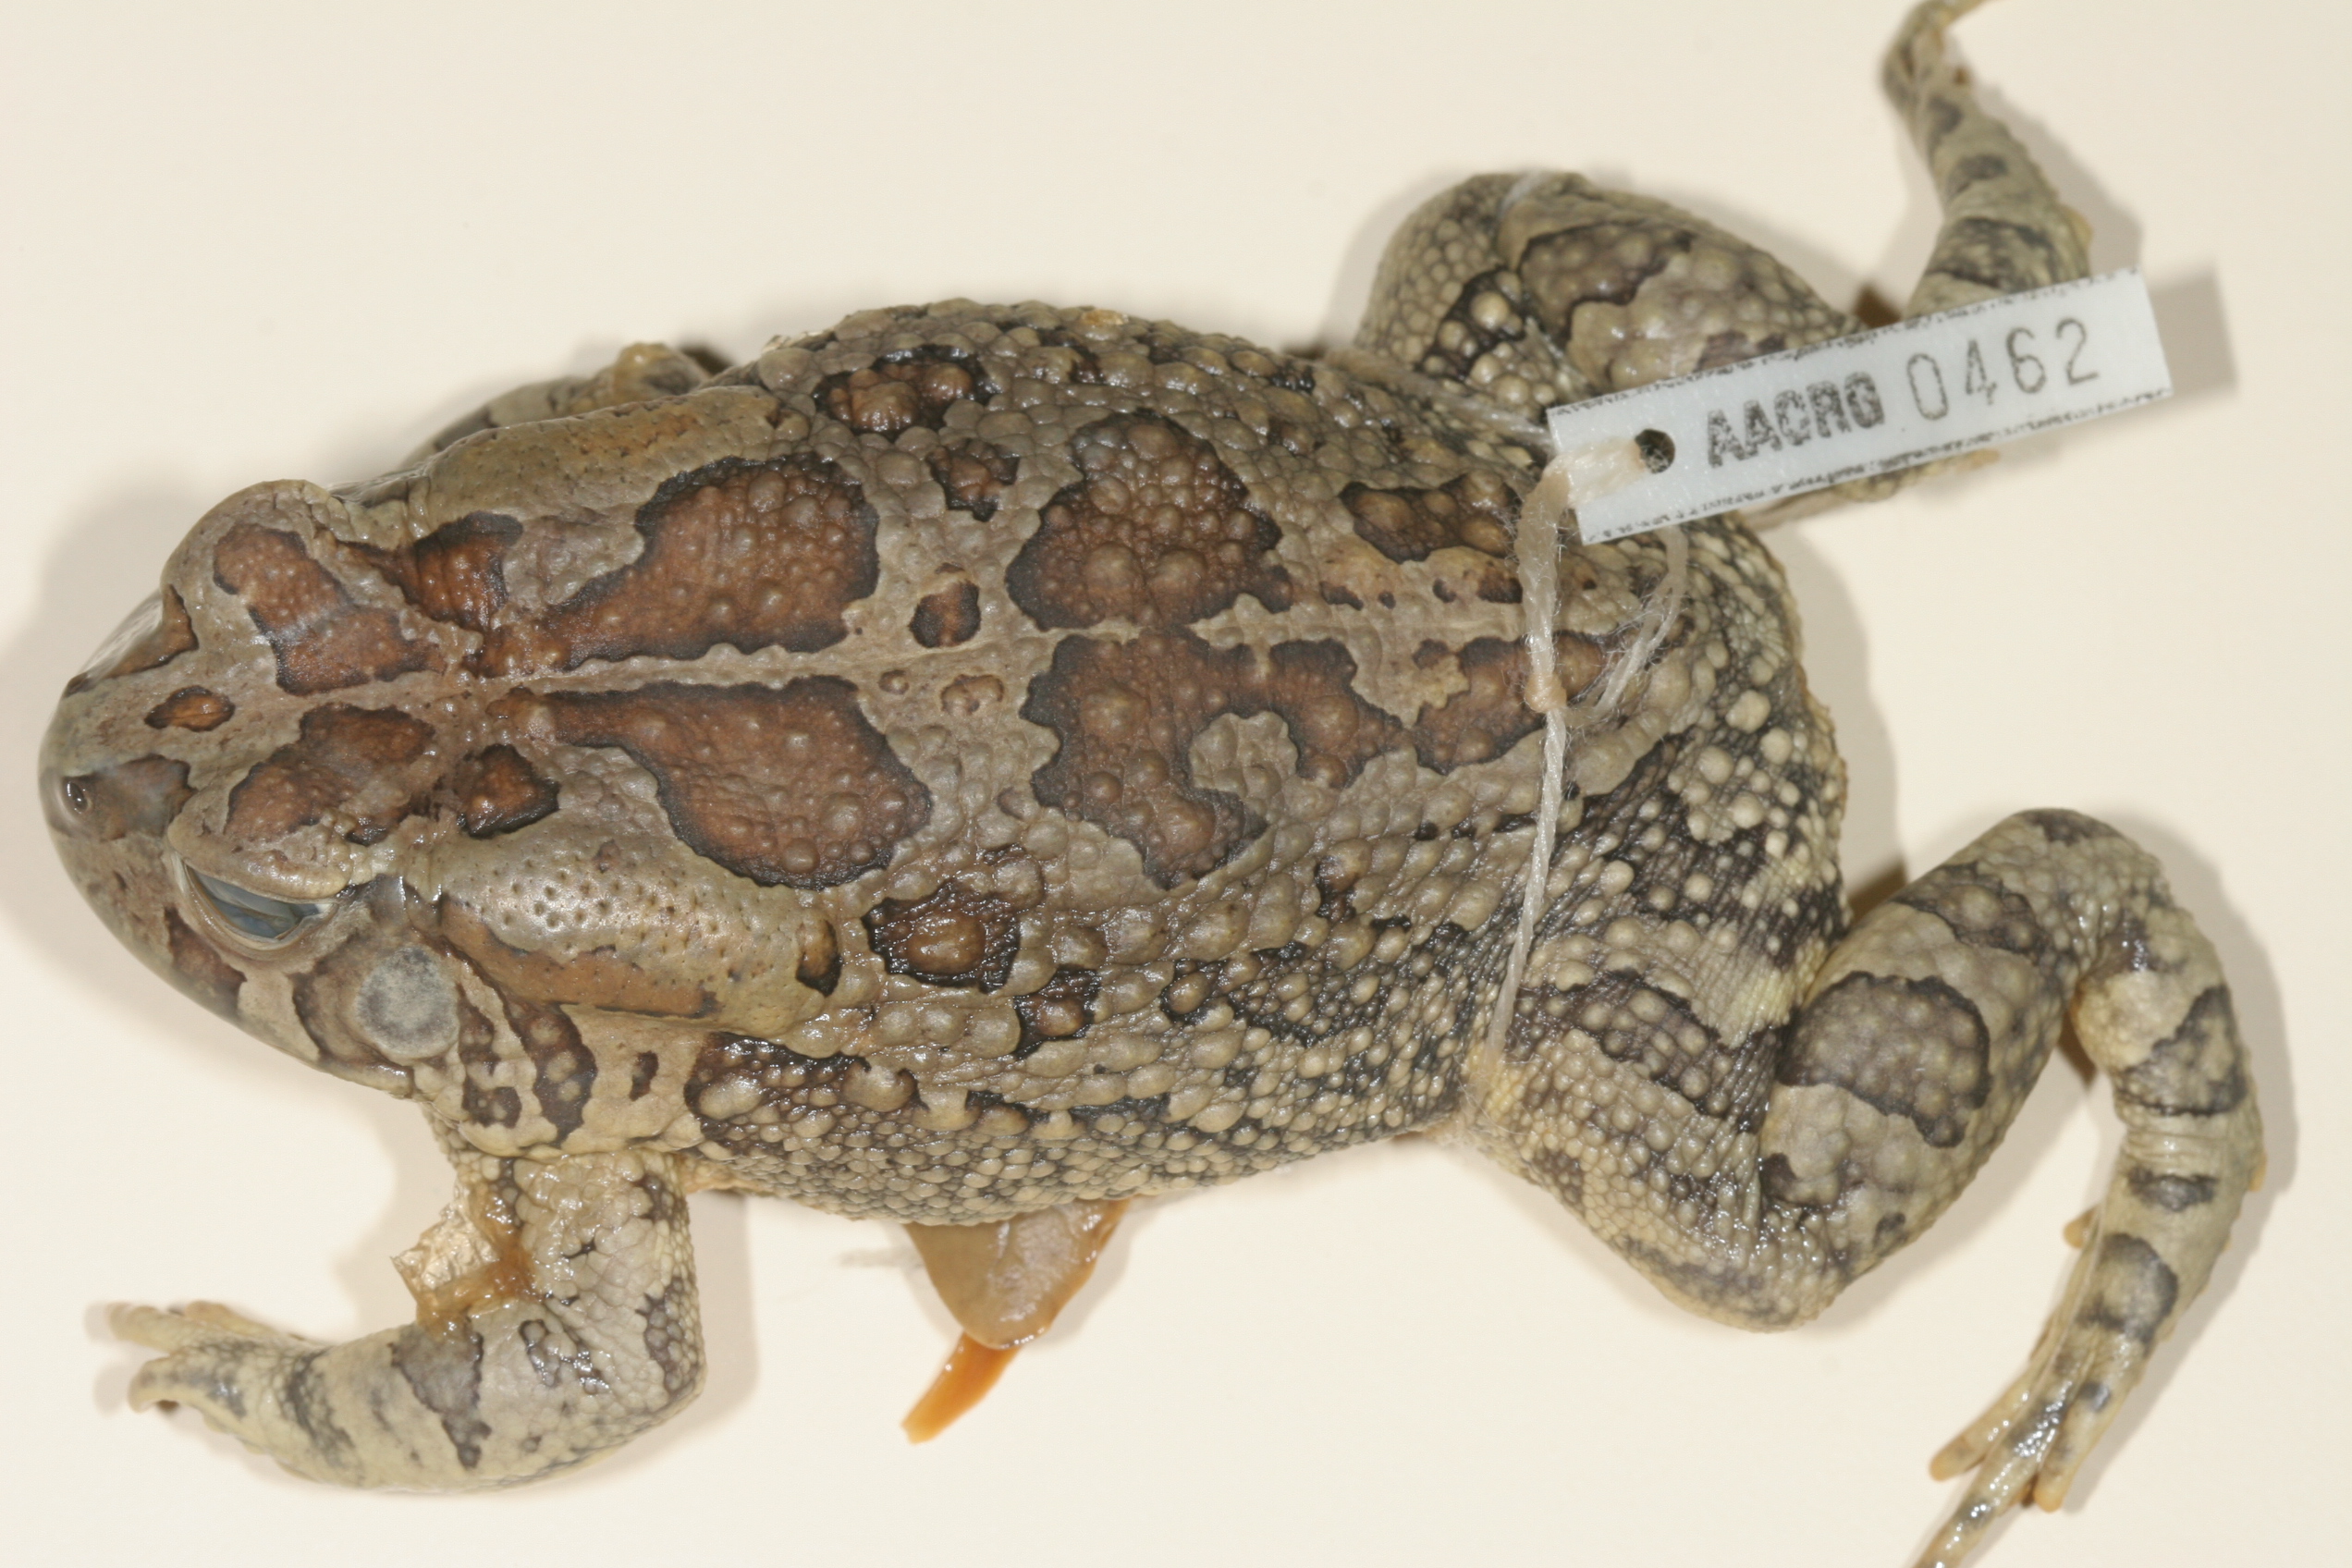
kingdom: Animalia
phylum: Chordata
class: Amphibia
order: Anura
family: Bufonidae
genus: Sclerophrys
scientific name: Sclerophrys garmani
